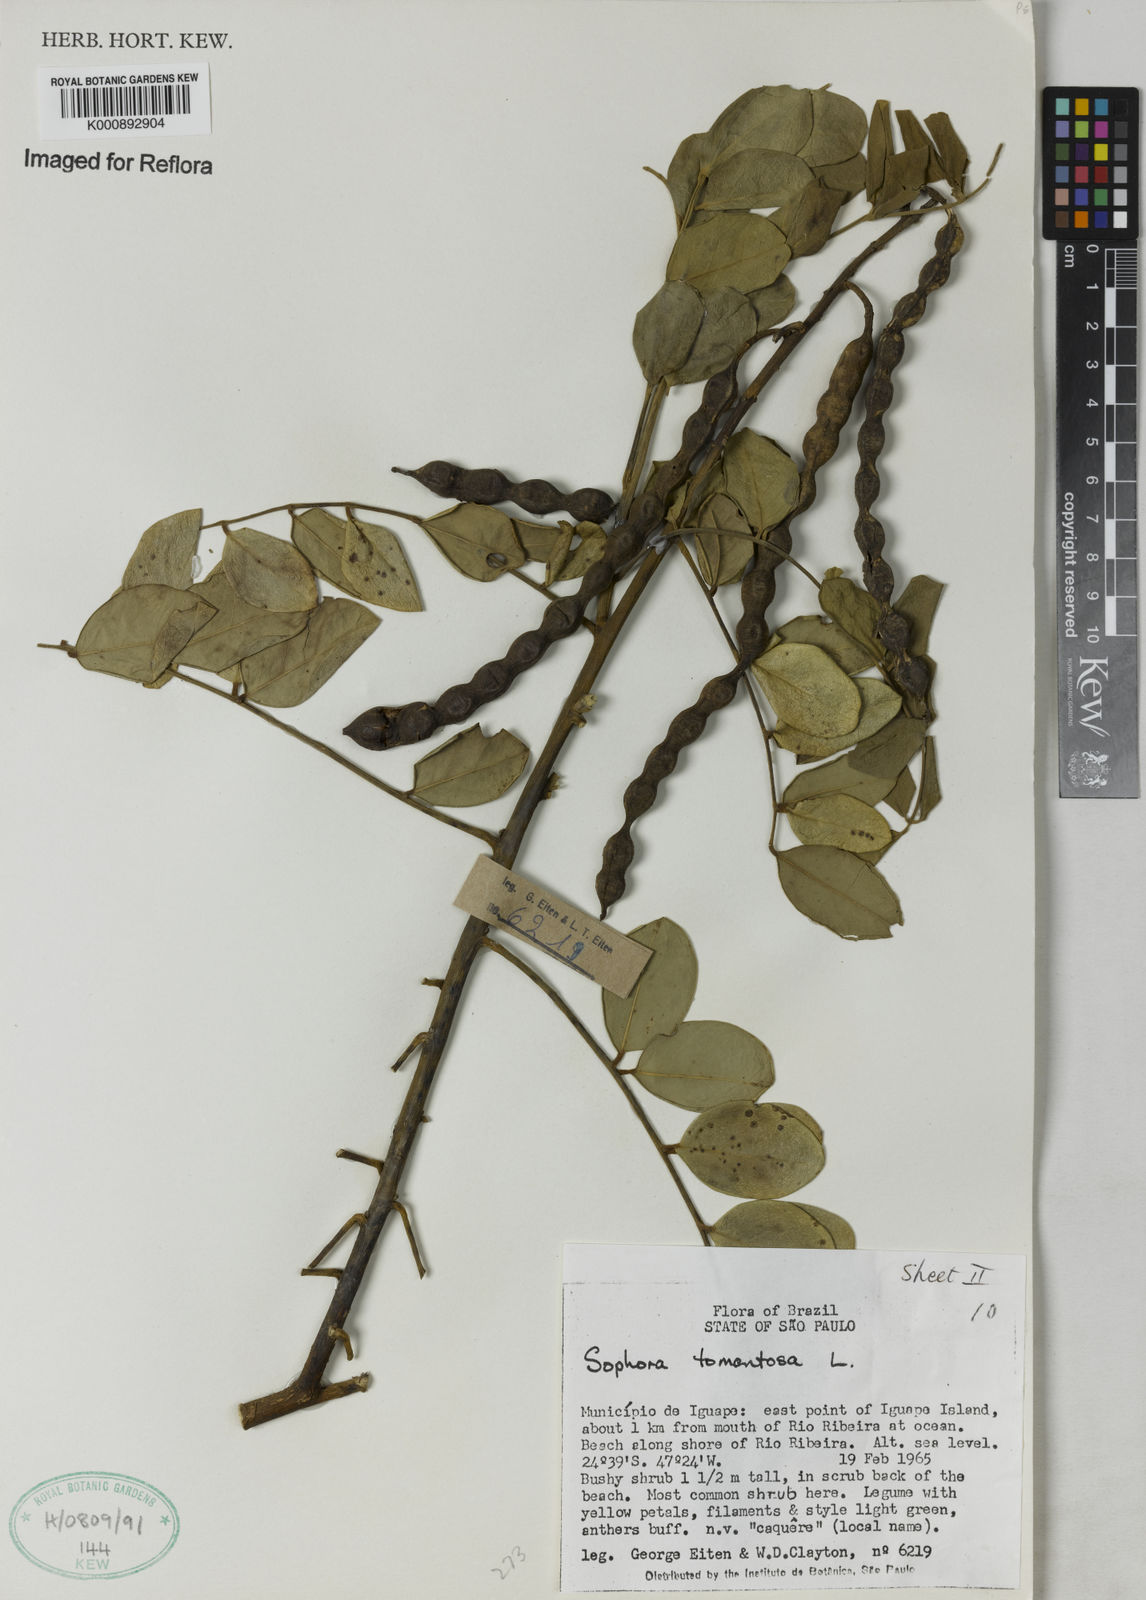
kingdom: Plantae
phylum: Tracheophyta
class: Magnoliopsida
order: Fabales
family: Fabaceae
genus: Sophora
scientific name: Sophora tomentosa
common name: Yellow necklacepod
